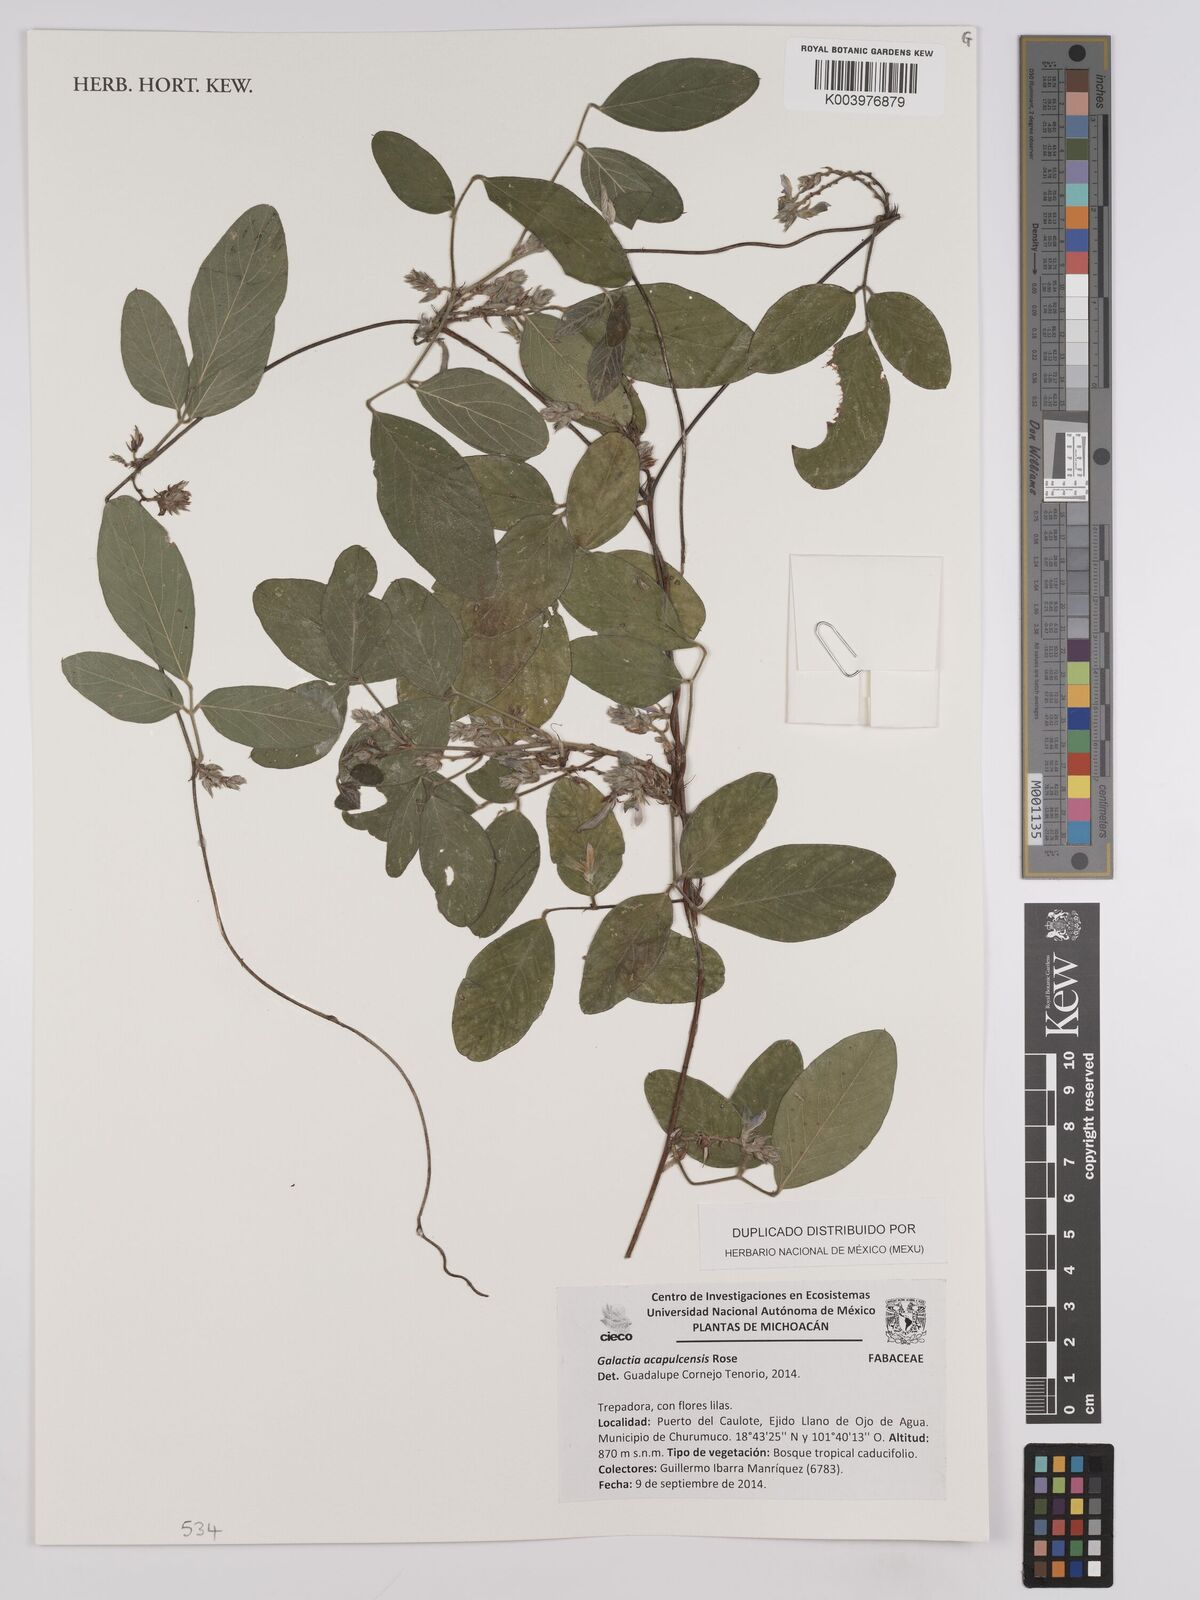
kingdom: Plantae
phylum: Tracheophyta
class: Magnoliopsida
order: Fabales
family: Fabaceae
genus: Galactia
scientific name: Galactia acapulcensis
